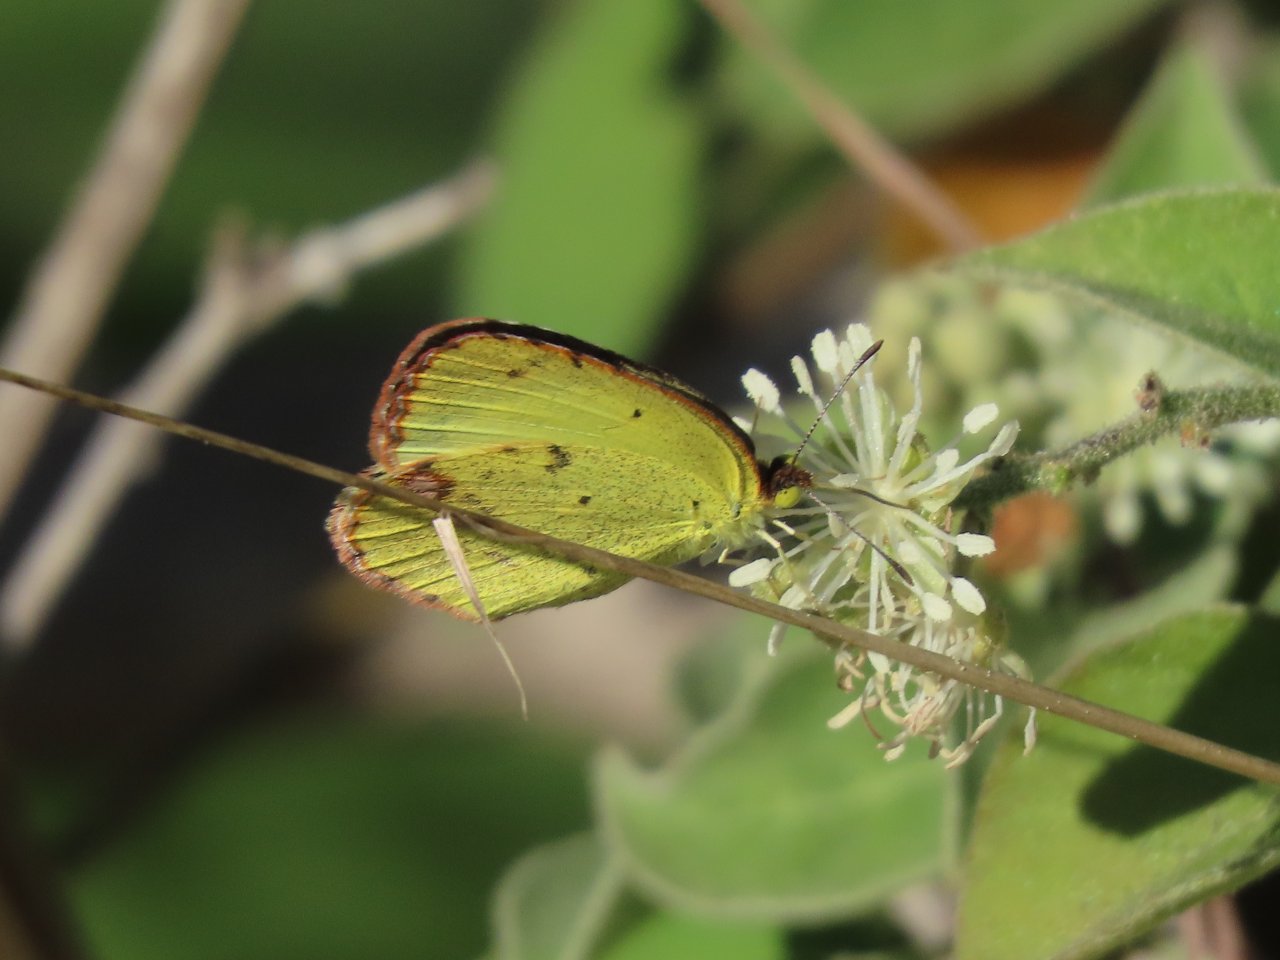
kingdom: Animalia
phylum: Arthropoda
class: Insecta
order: Lepidoptera
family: Pieridae
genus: Pyrisitia
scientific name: Pyrisitia lisa
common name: Little Yellow
